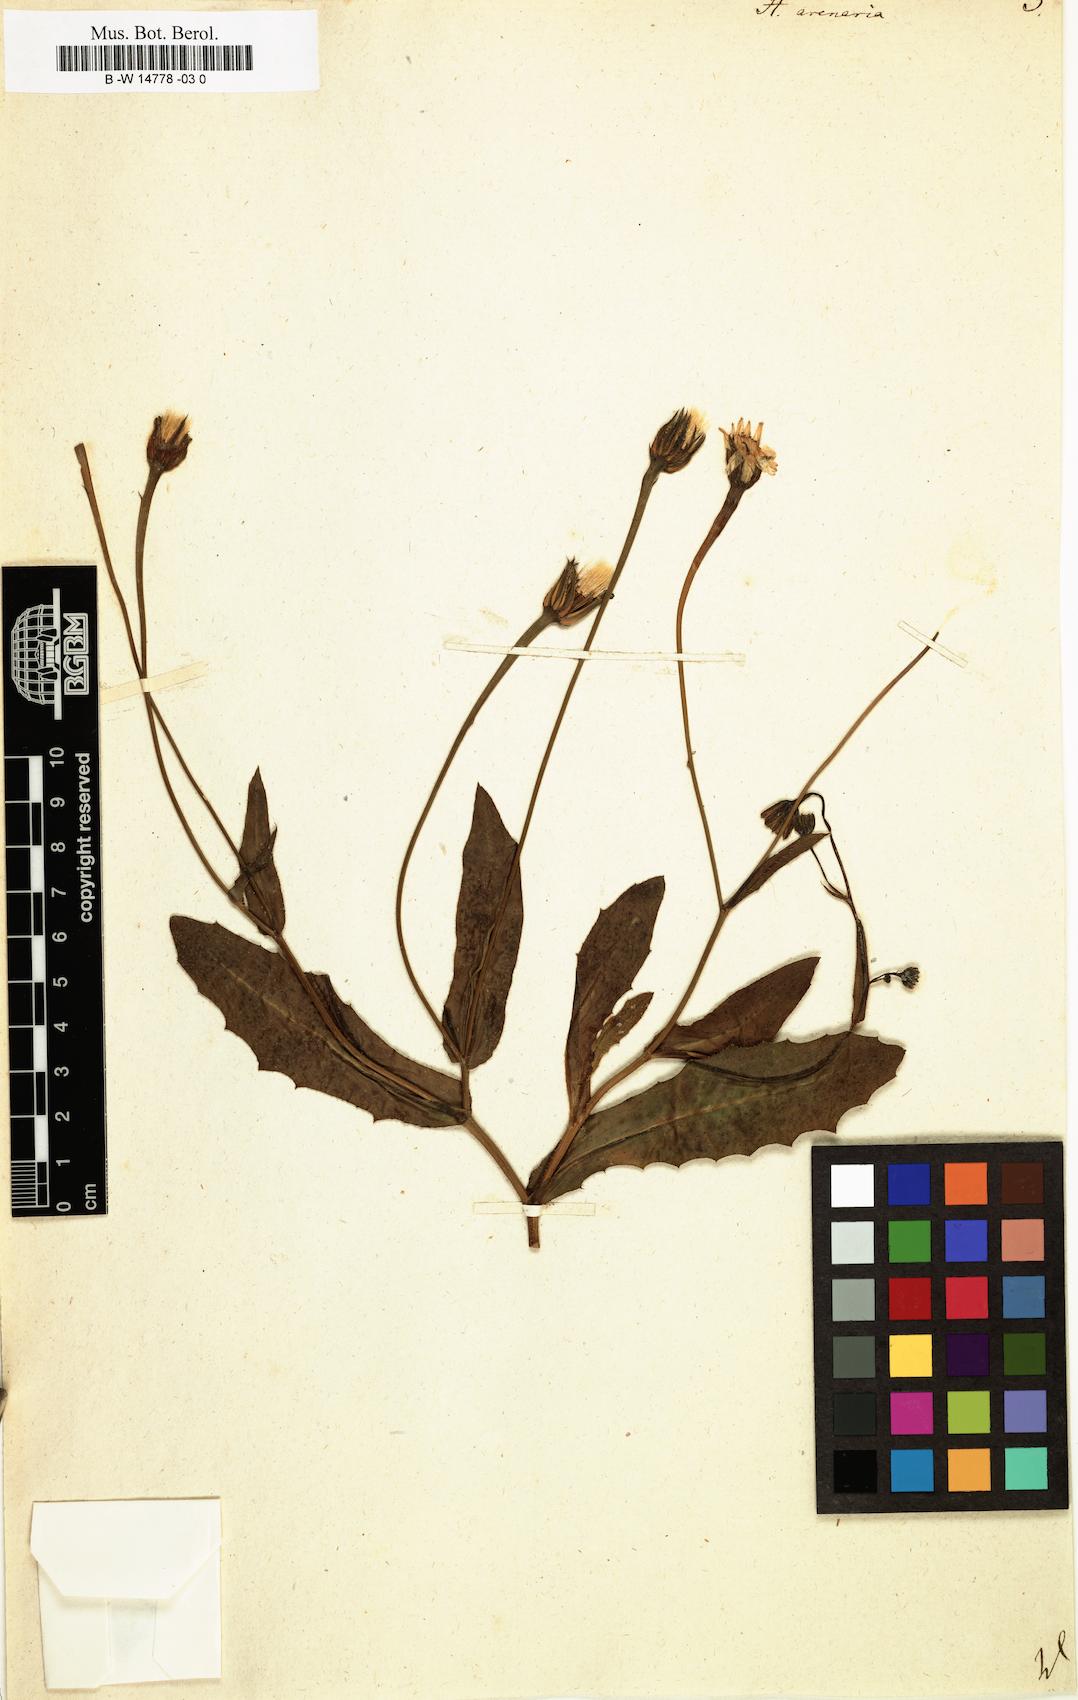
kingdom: Plantae
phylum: Tracheophyta
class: Magnoliopsida
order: Asterales
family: Asteraceae
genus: Hedypnois
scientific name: Hedypnois arenaria
